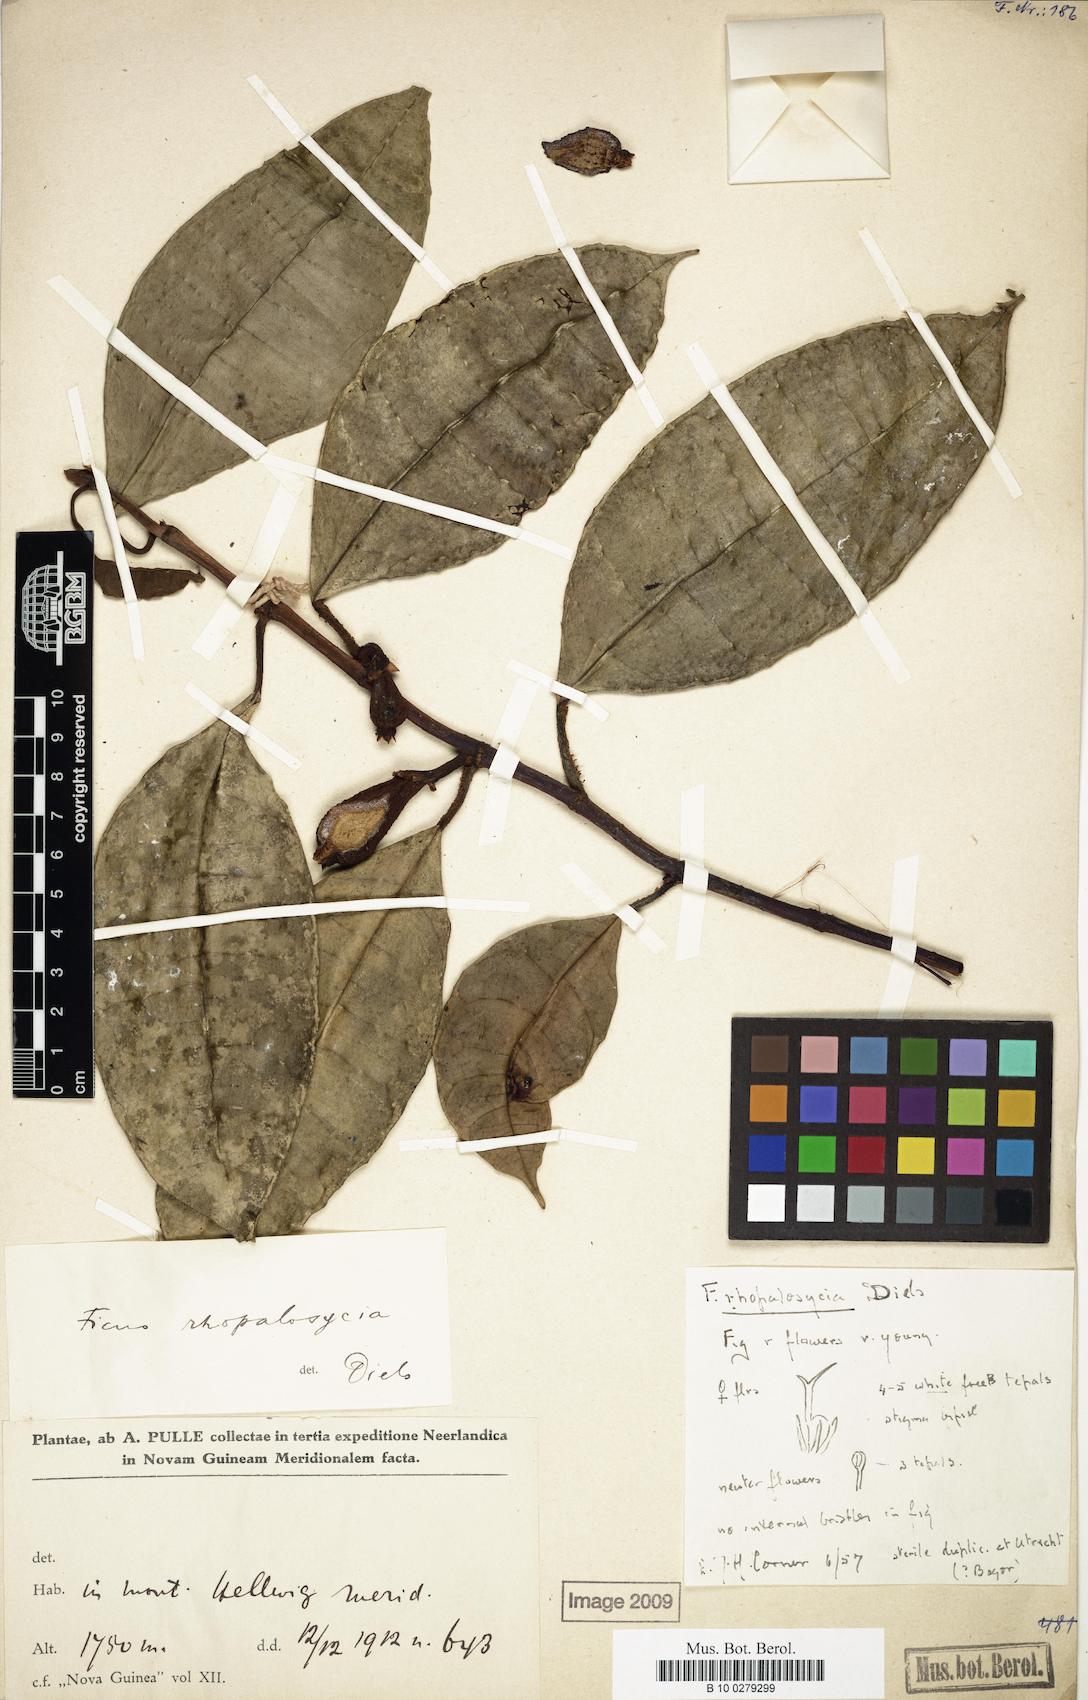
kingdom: Plantae
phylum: Tracheophyta
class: Magnoliopsida
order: Rosales
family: Moraceae
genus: Ficus
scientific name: Ficus scratchleyana
